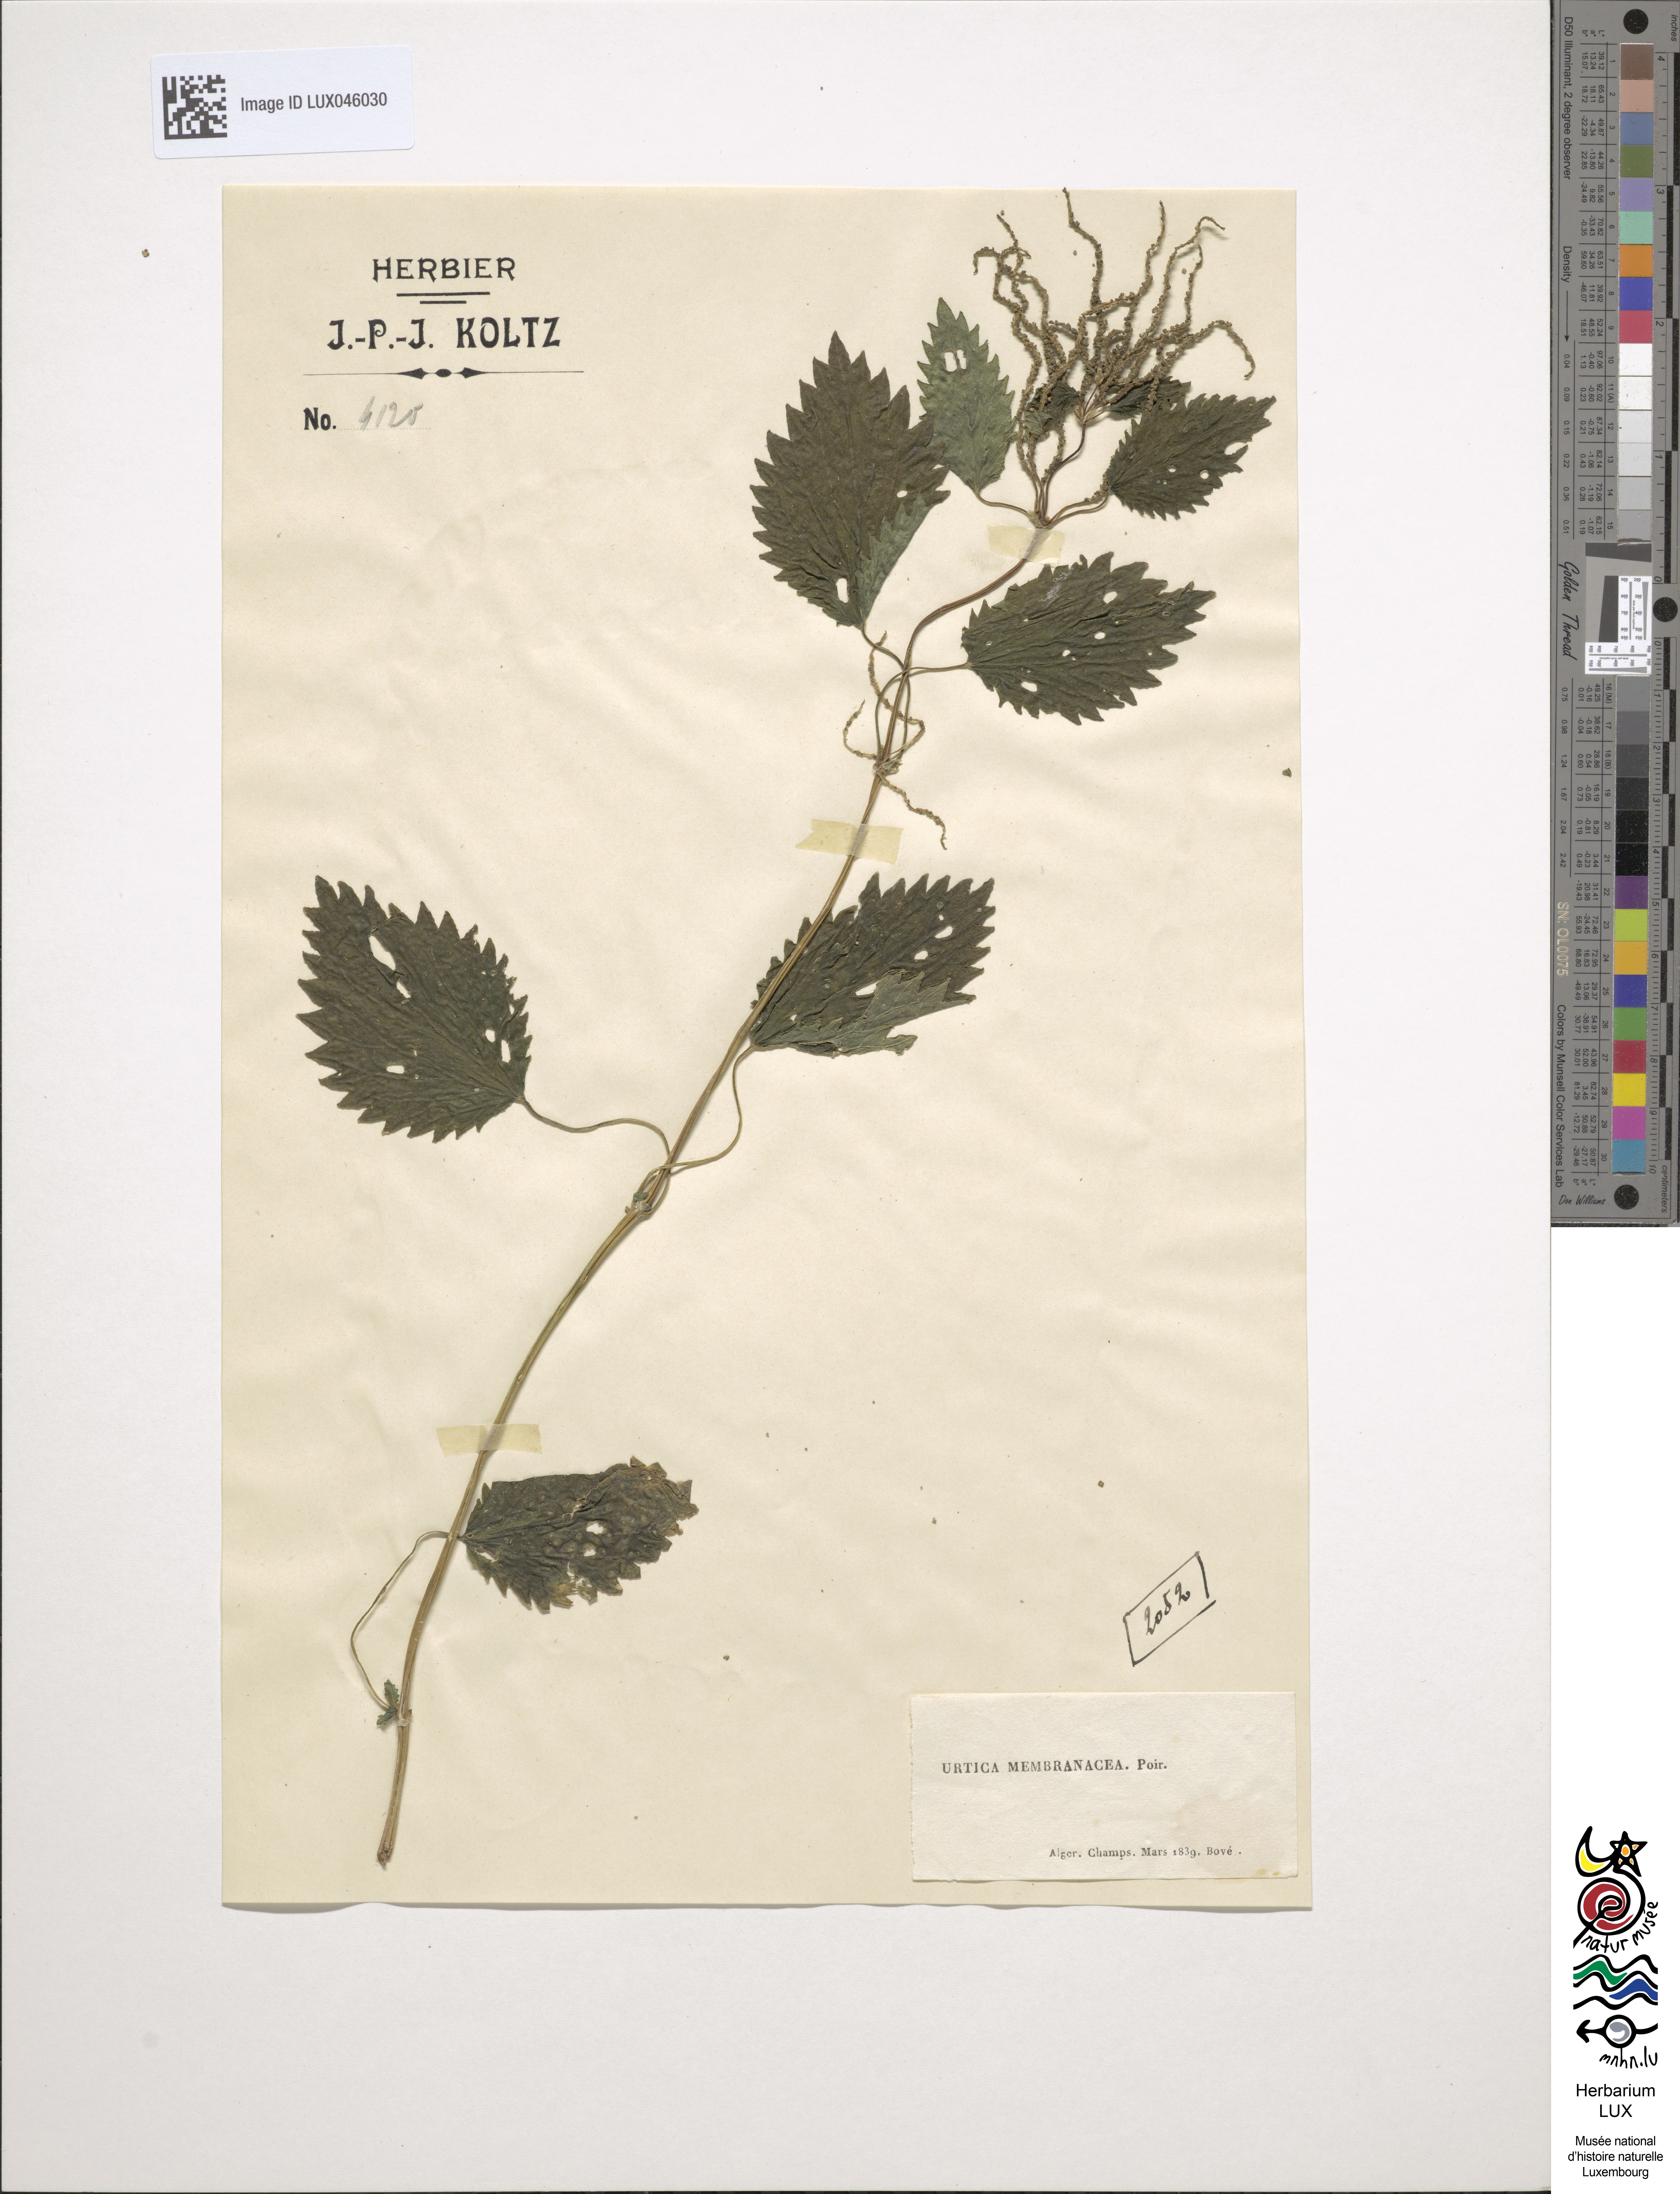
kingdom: Plantae
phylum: Tracheophyta
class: Magnoliopsida
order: Rosales
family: Urticaceae
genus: Urtica
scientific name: Urtica membranacea
